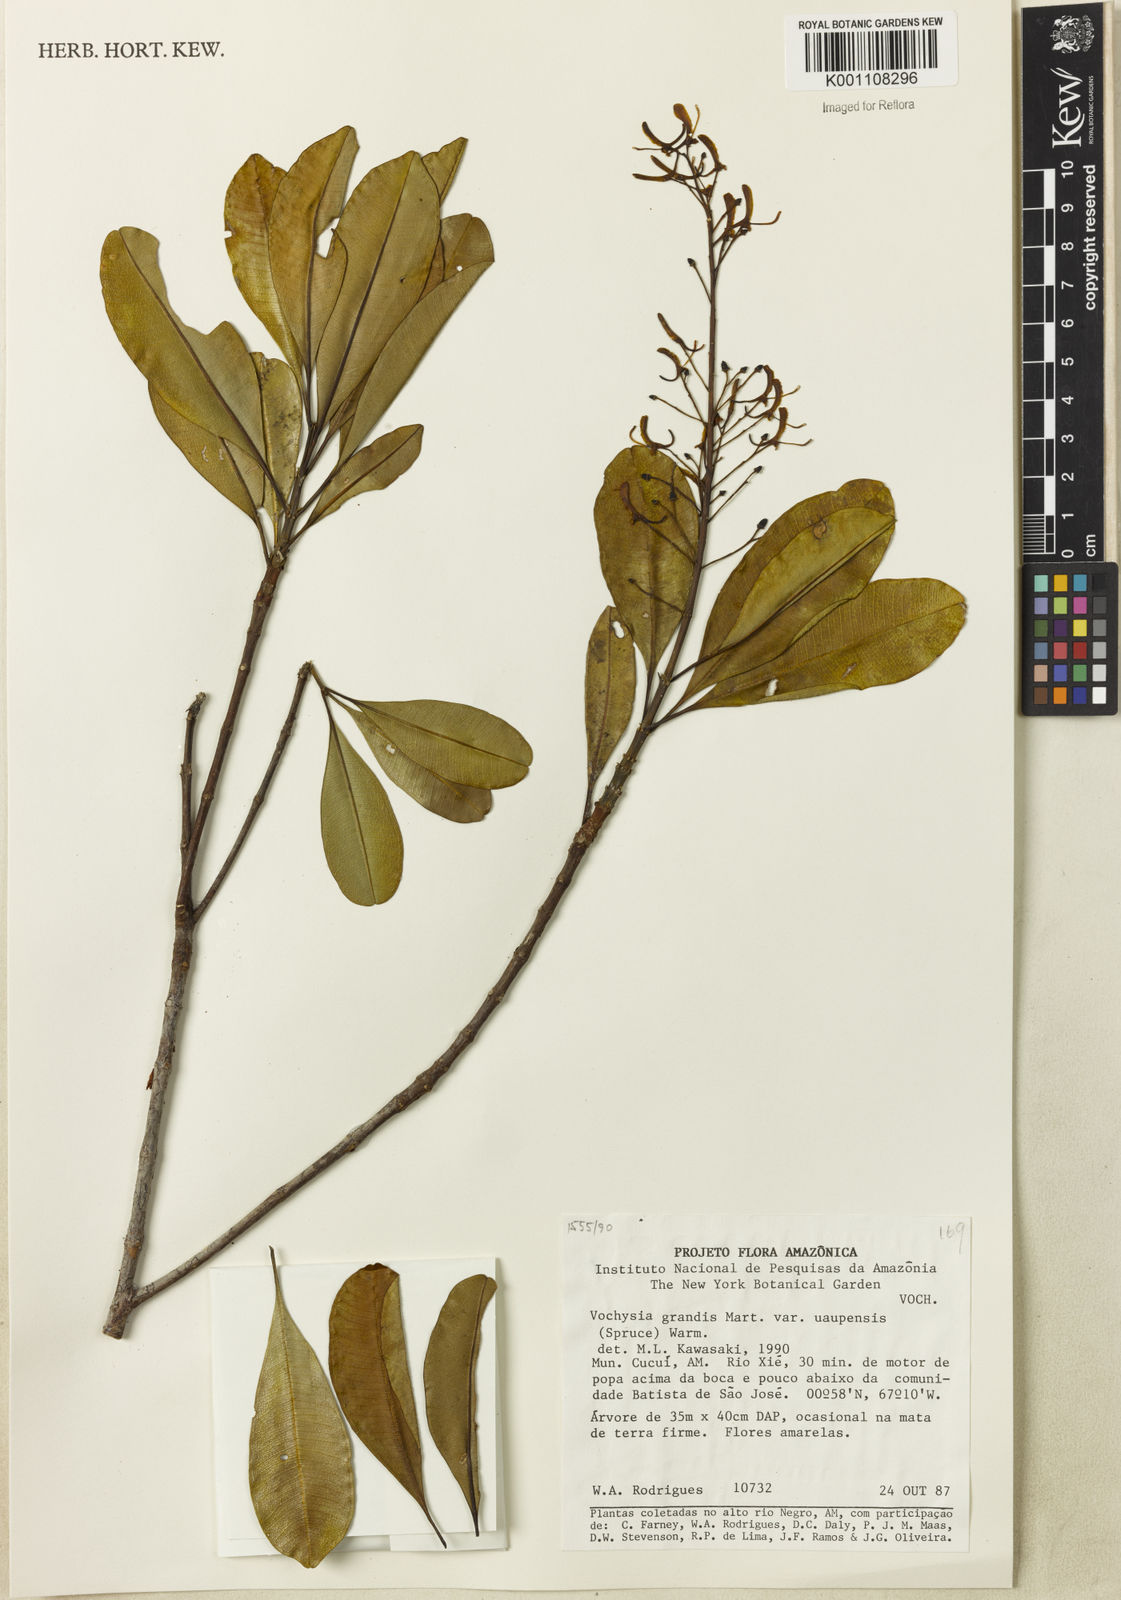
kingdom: Plantae
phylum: Tracheophyta
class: Magnoliopsida
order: Myrtales
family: Vochysiaceae
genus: Vochysia
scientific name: Vochysia grandis
